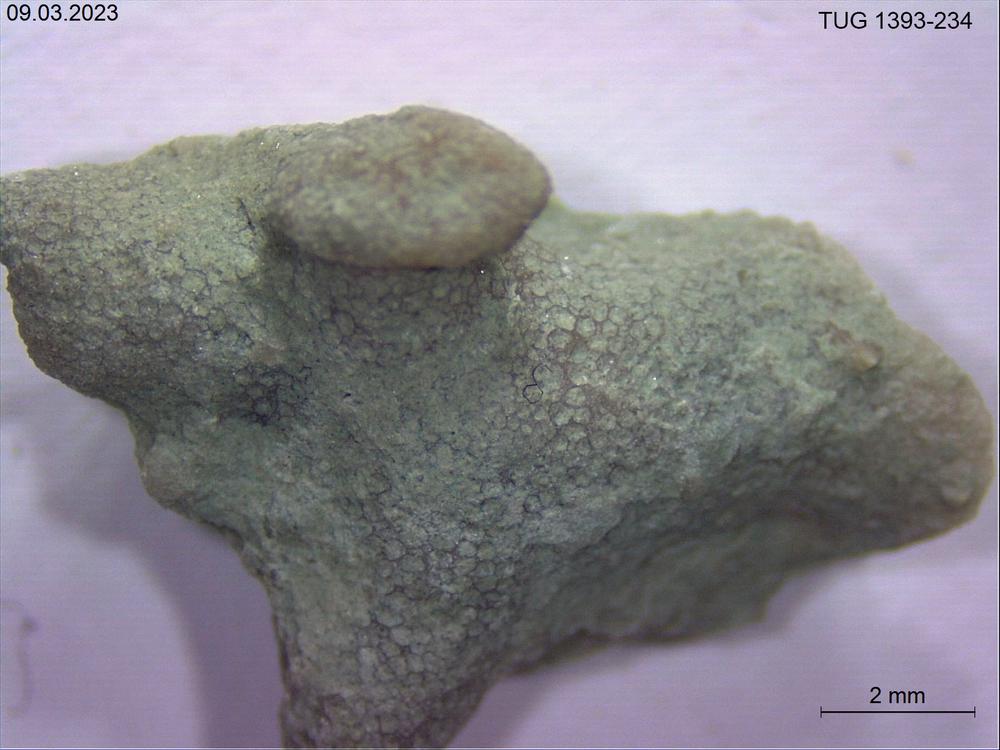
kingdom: Animalia
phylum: Bryozoa
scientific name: Bryozoa
